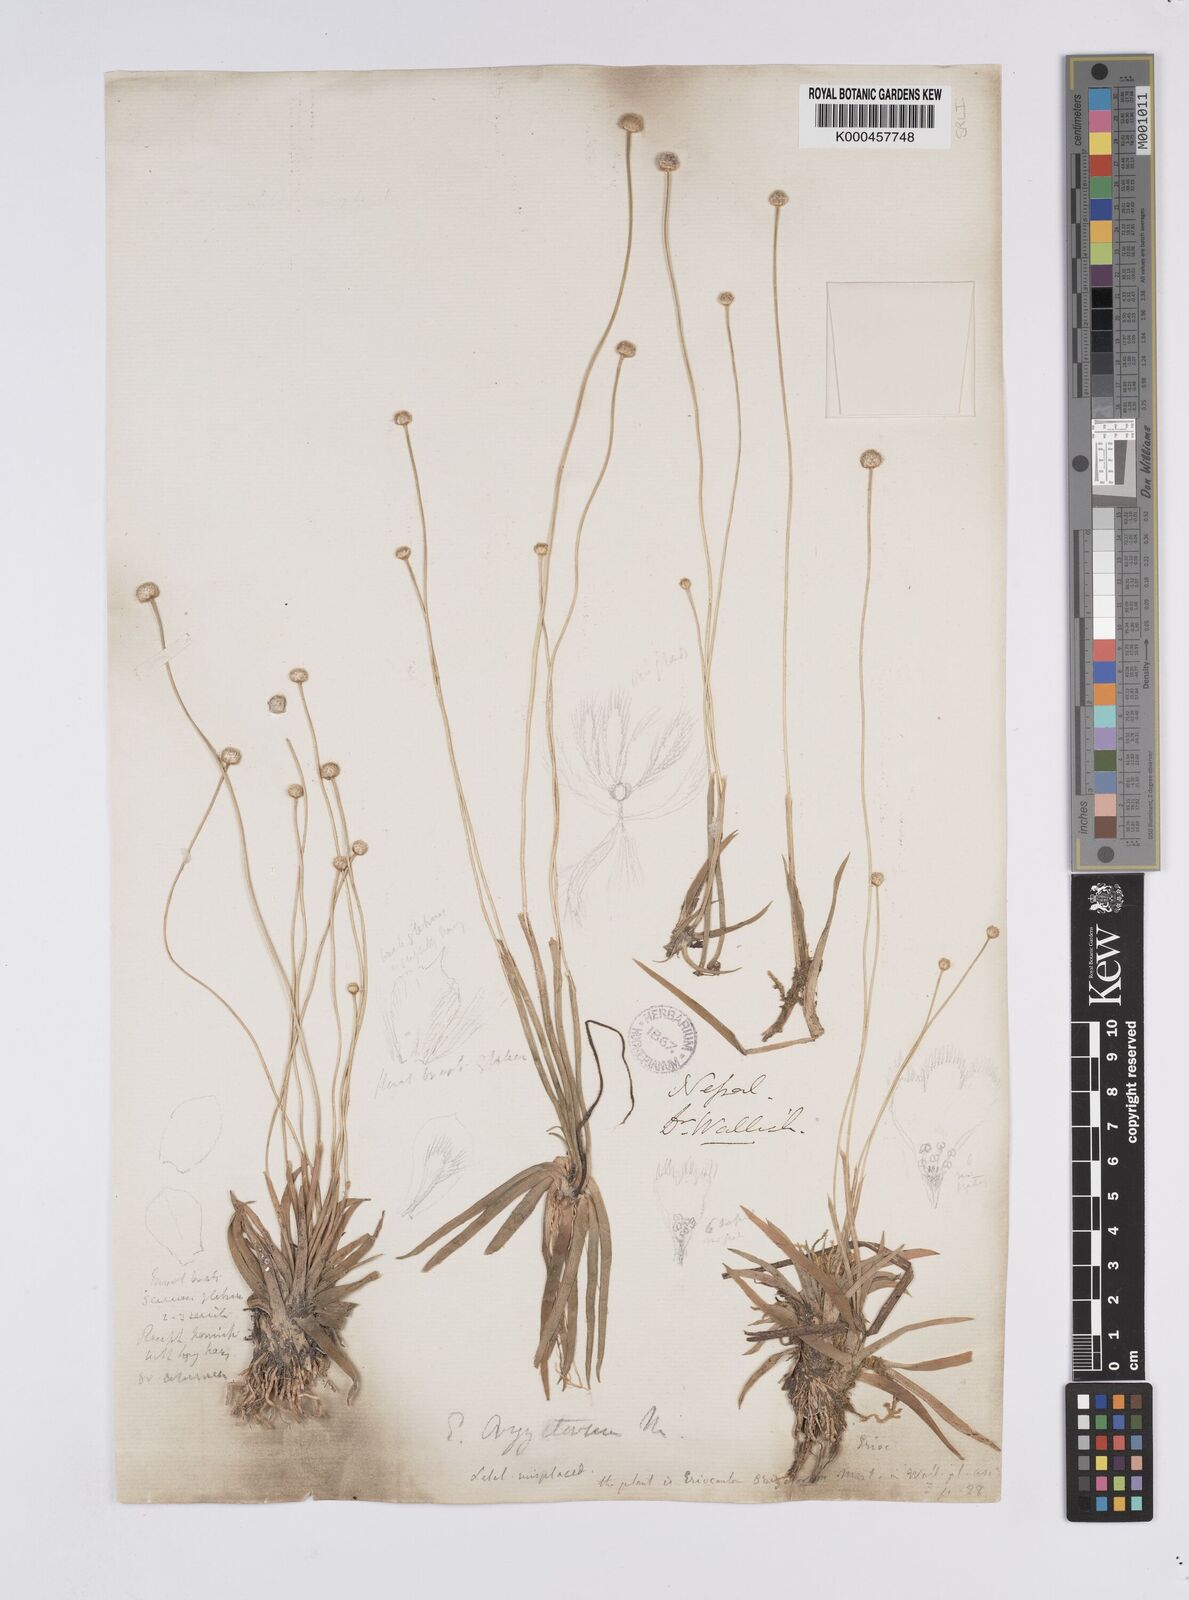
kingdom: Plantae
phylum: Tracheophyta
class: Liliopsida
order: Poales
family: Eriocaulaceae
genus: Eriocaulon
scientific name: Eriocaulon oryzetorum
